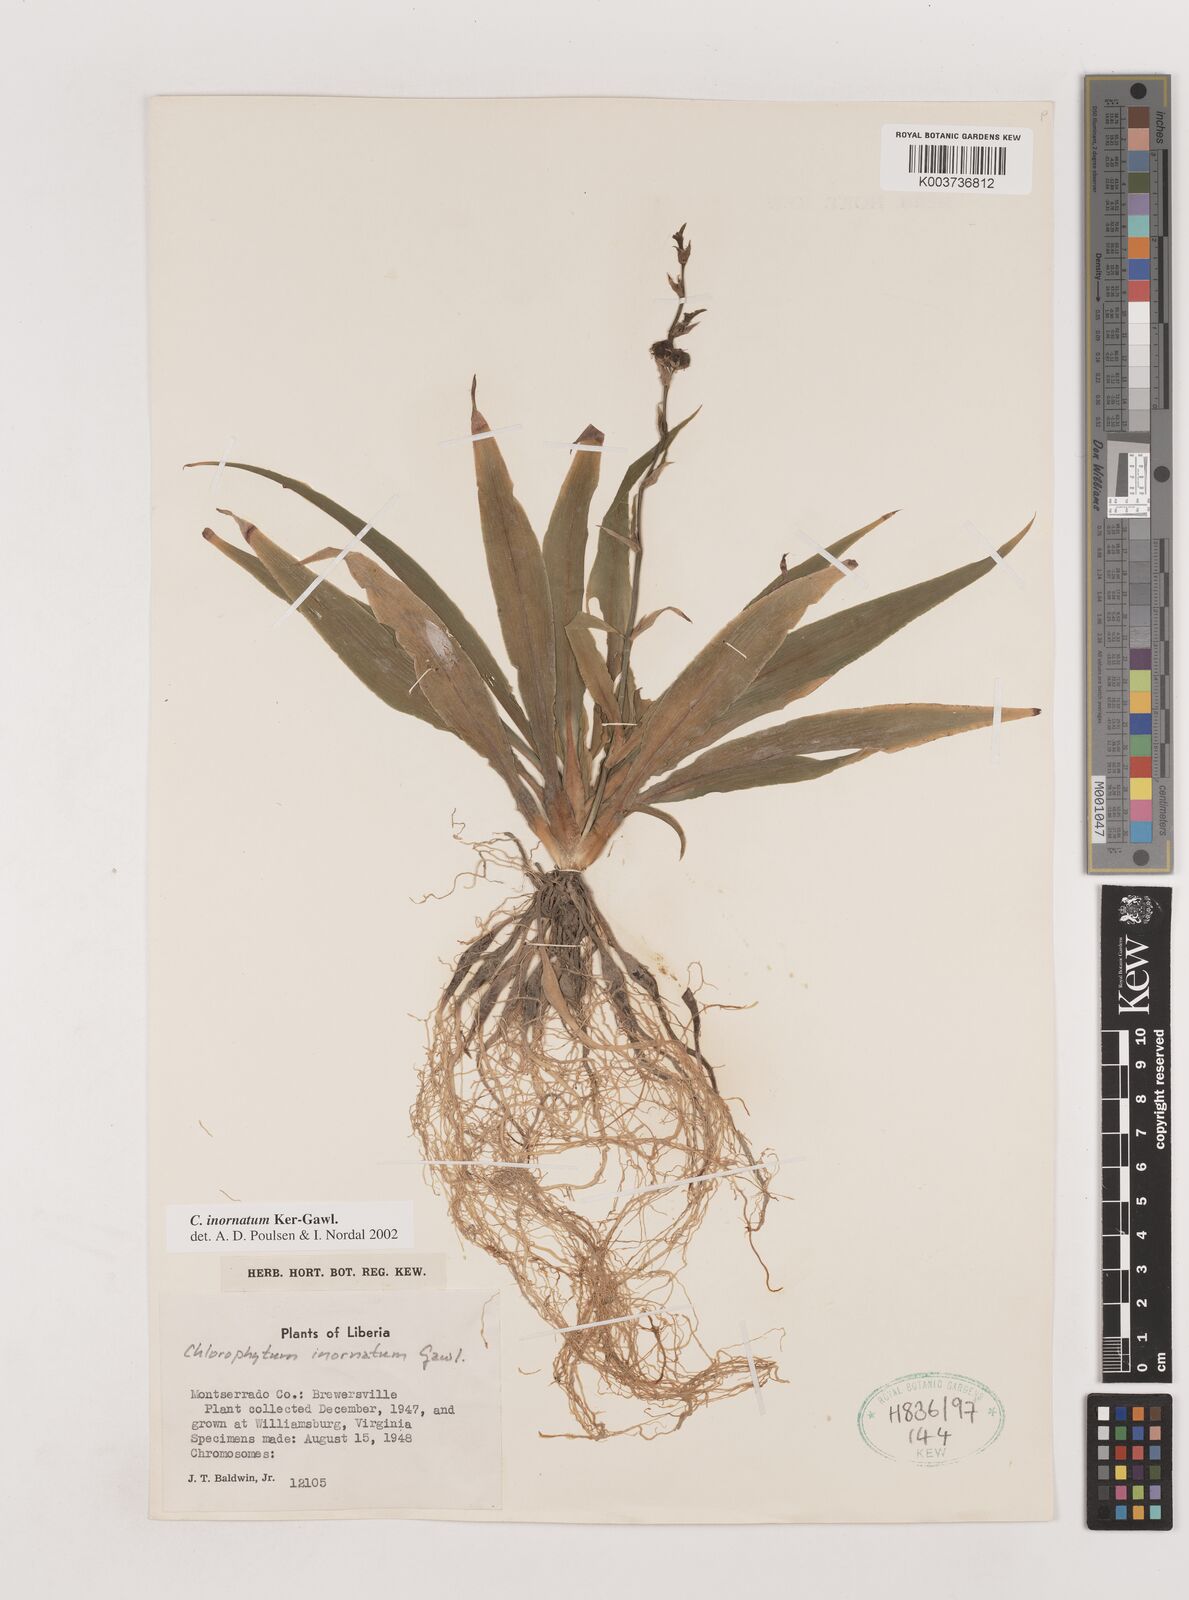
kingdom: Plantae
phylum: Tracheophyta
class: Liliopsida
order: Asparagales
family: Asparagaceae
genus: Chlorophytum
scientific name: Chlorophytum inornatum
